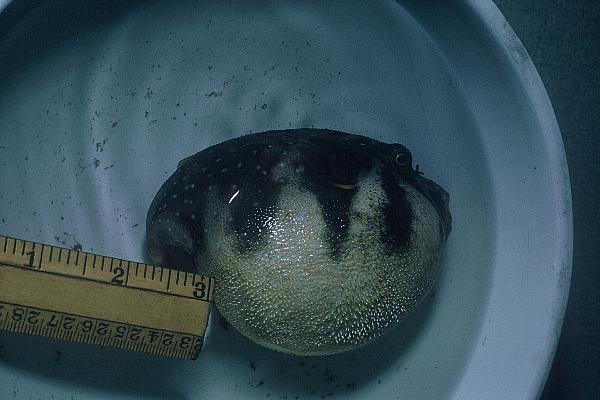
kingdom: Animalia
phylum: Chordata
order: Tetraodontiformes
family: Tetraodontidae
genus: Arothron
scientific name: Arothron hispidus
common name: Stripebelly puffer
